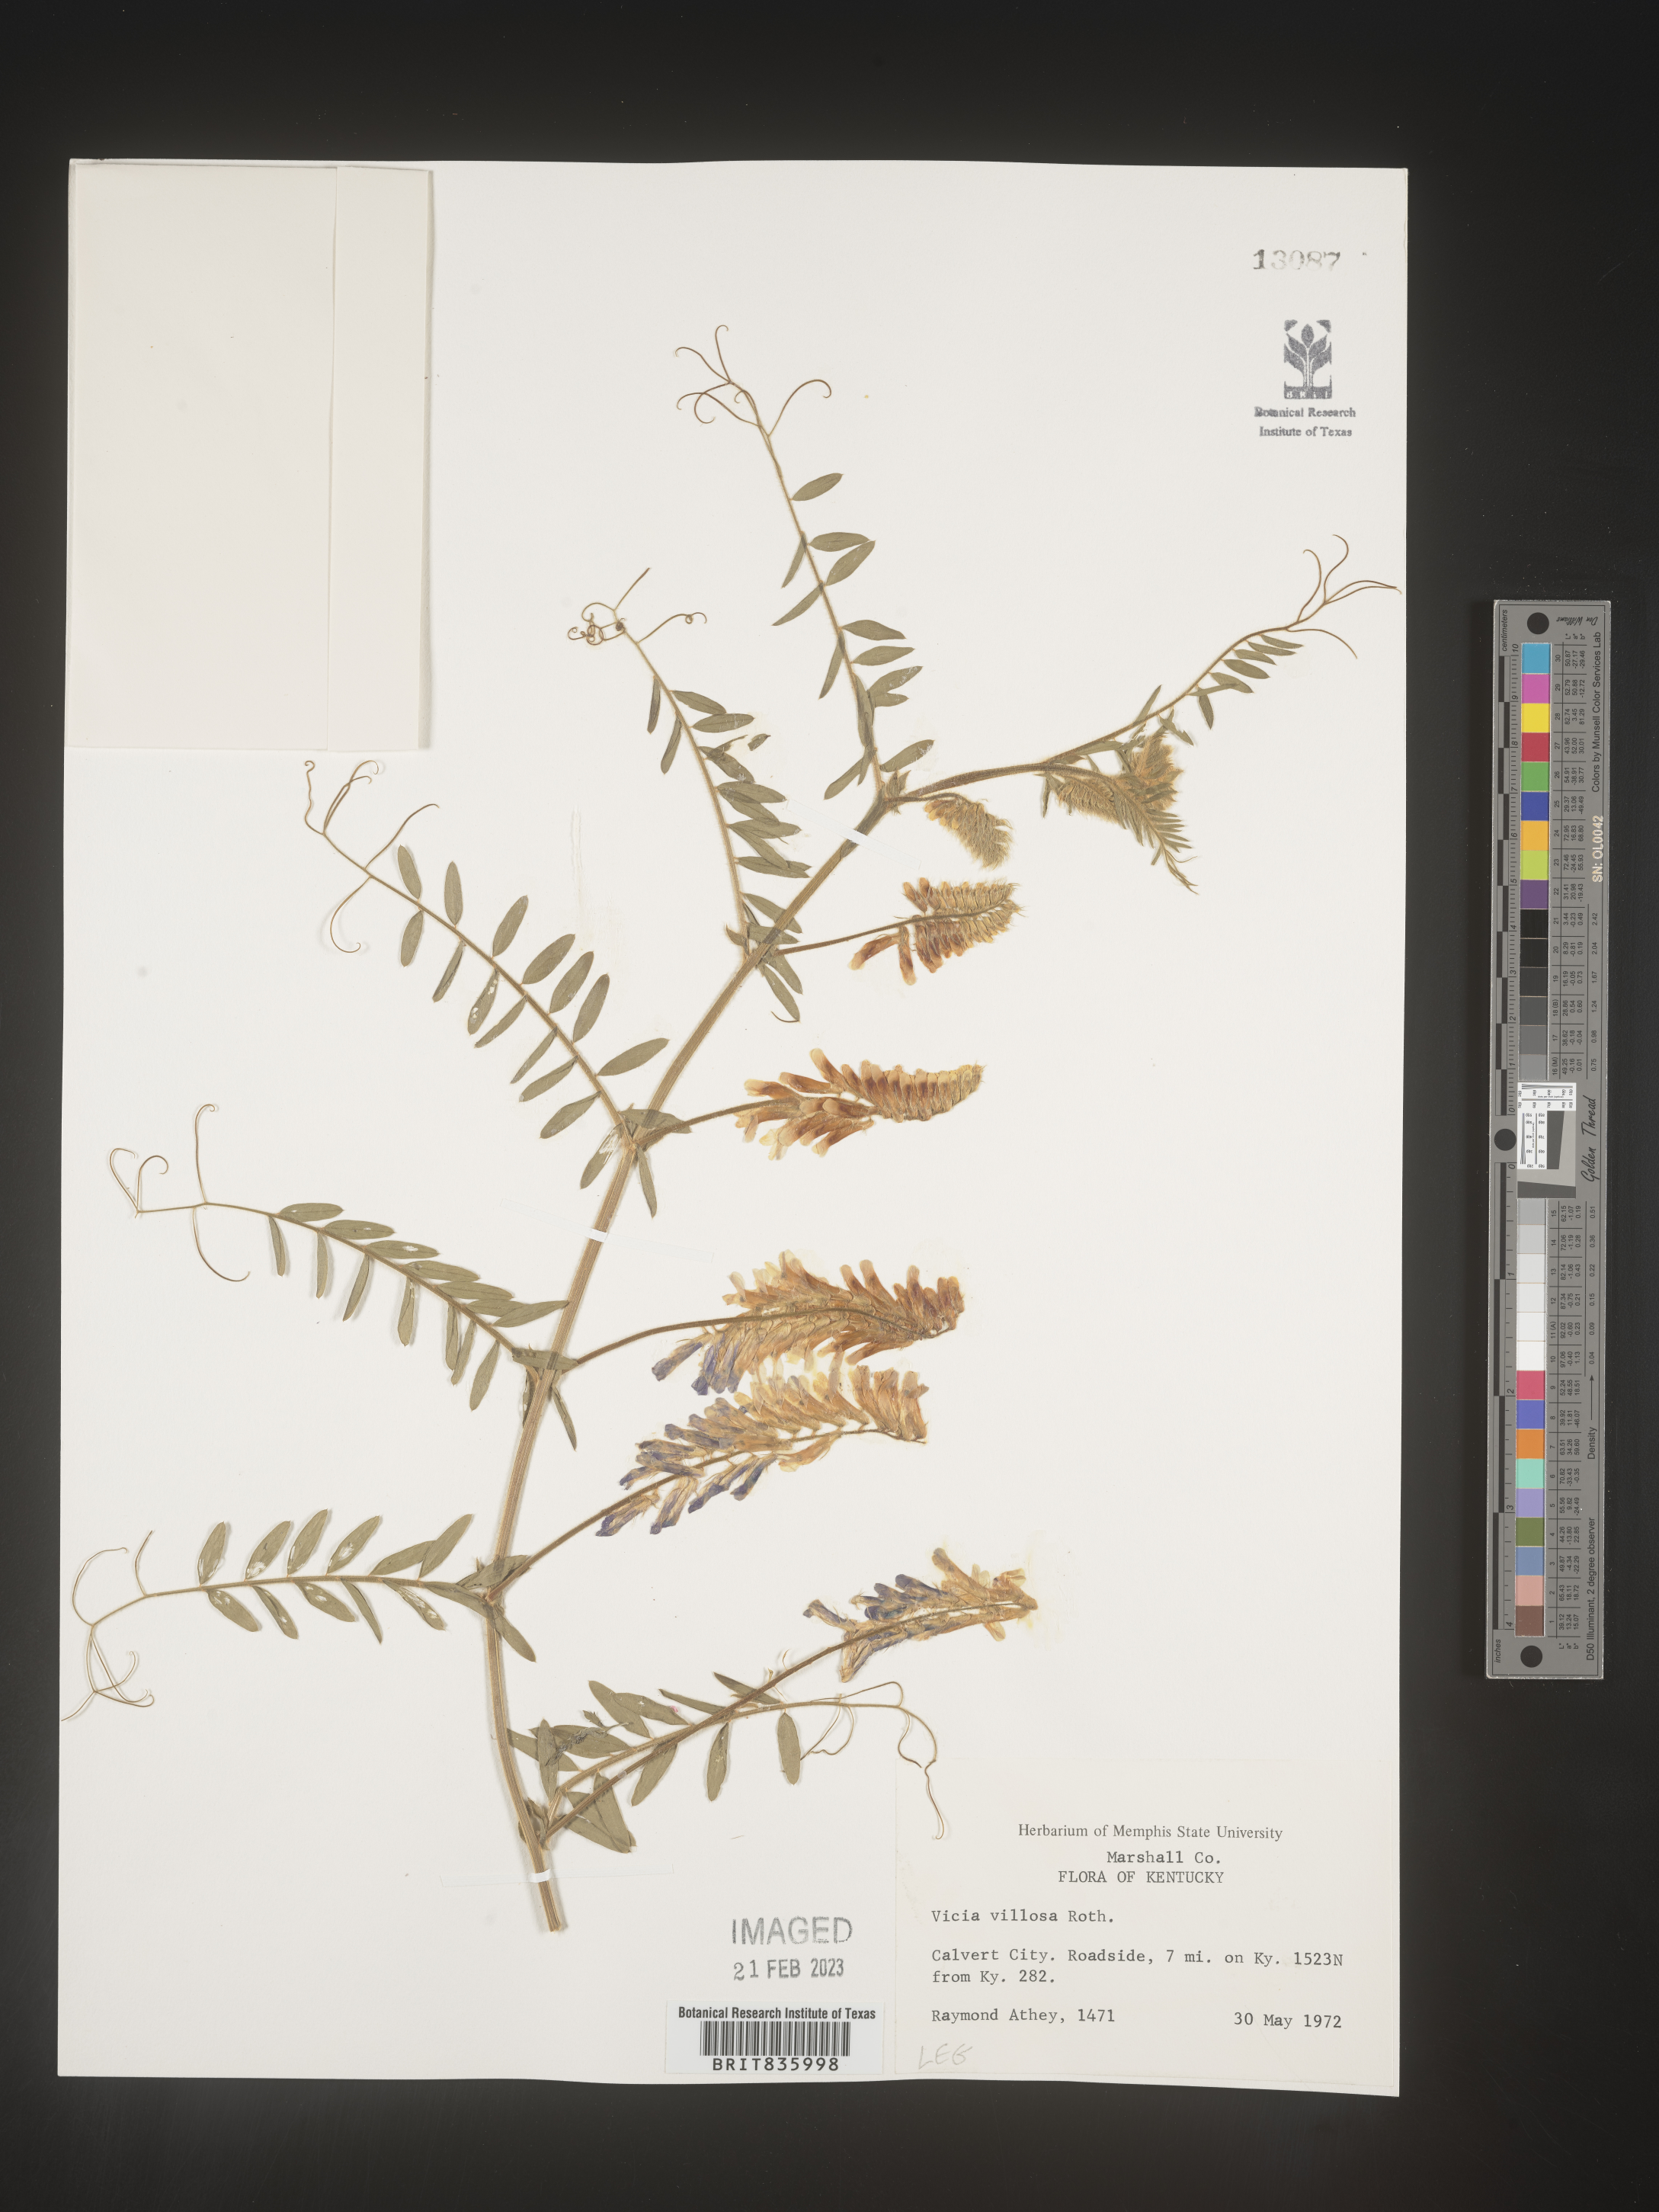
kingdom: Plantae
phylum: Tracheophyta
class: Magnoliopsida
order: Fabales
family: Fabaceae
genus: Vicia
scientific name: Vicia villosa
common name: Fodder vetch
